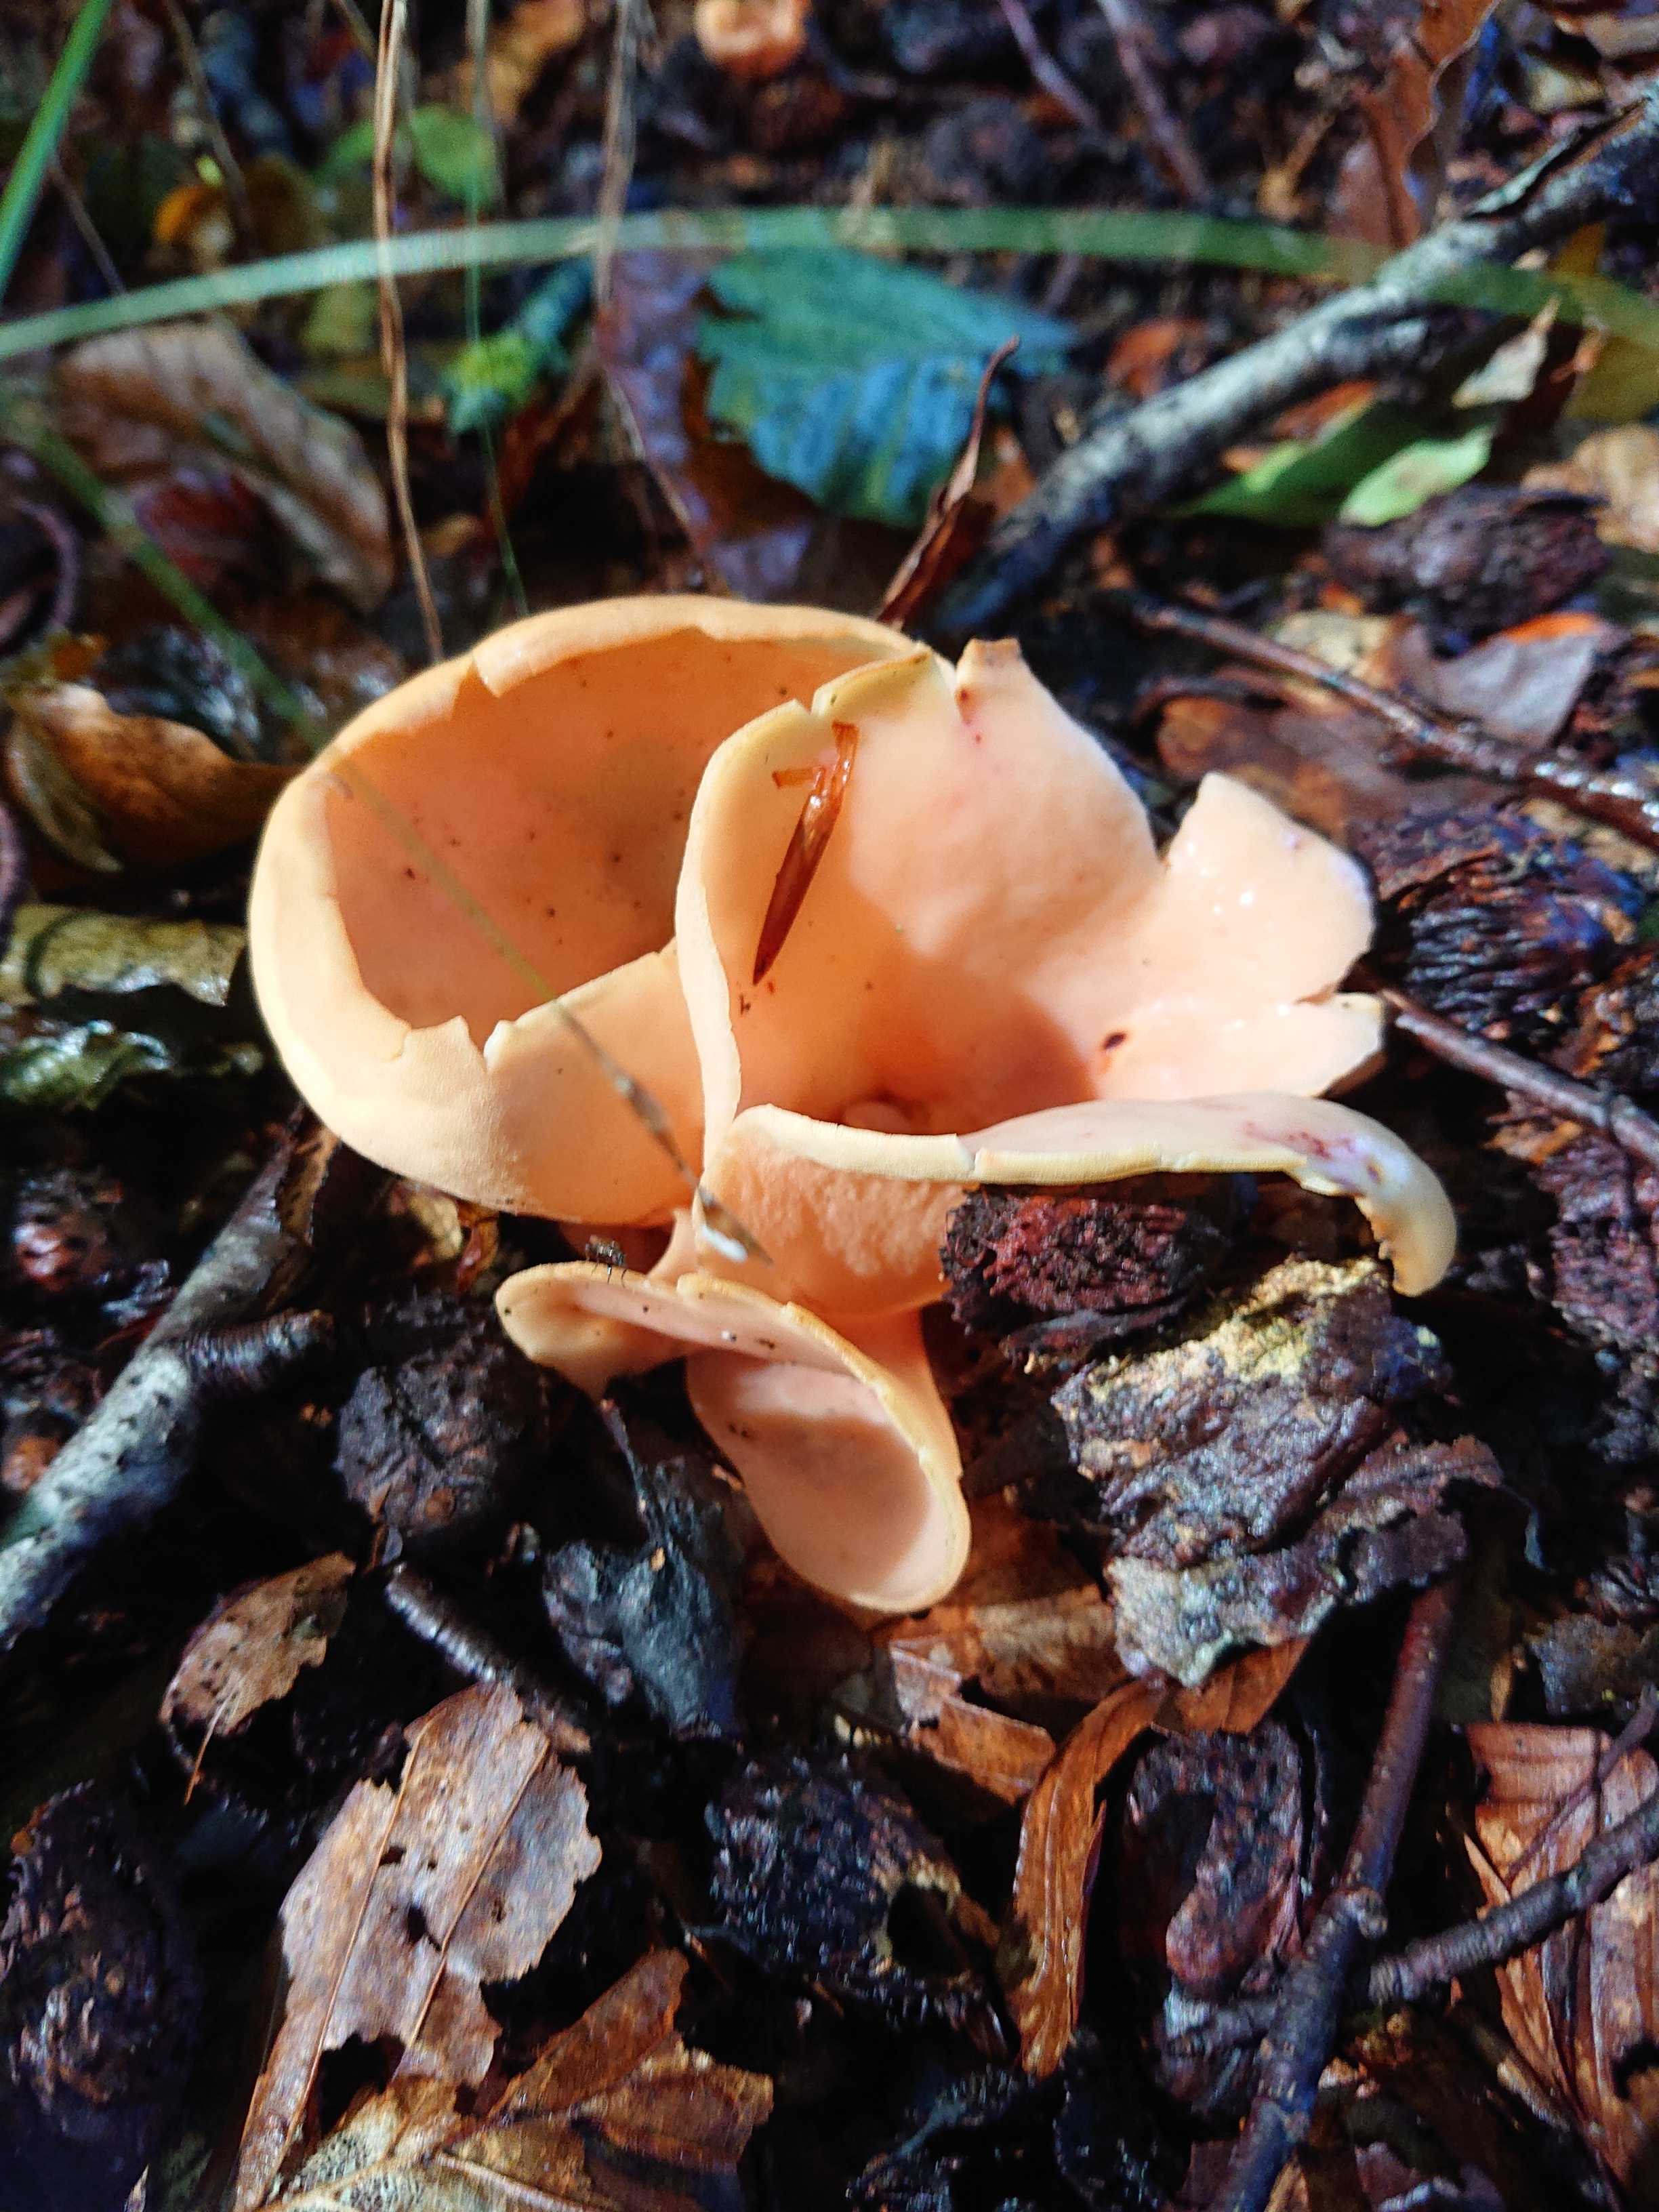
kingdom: Fungi
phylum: Ascomycota
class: Pezizomycetes
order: Pezizales
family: Otideaceae
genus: Otidea
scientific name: Otidea onotica
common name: æsel-ørebæger
